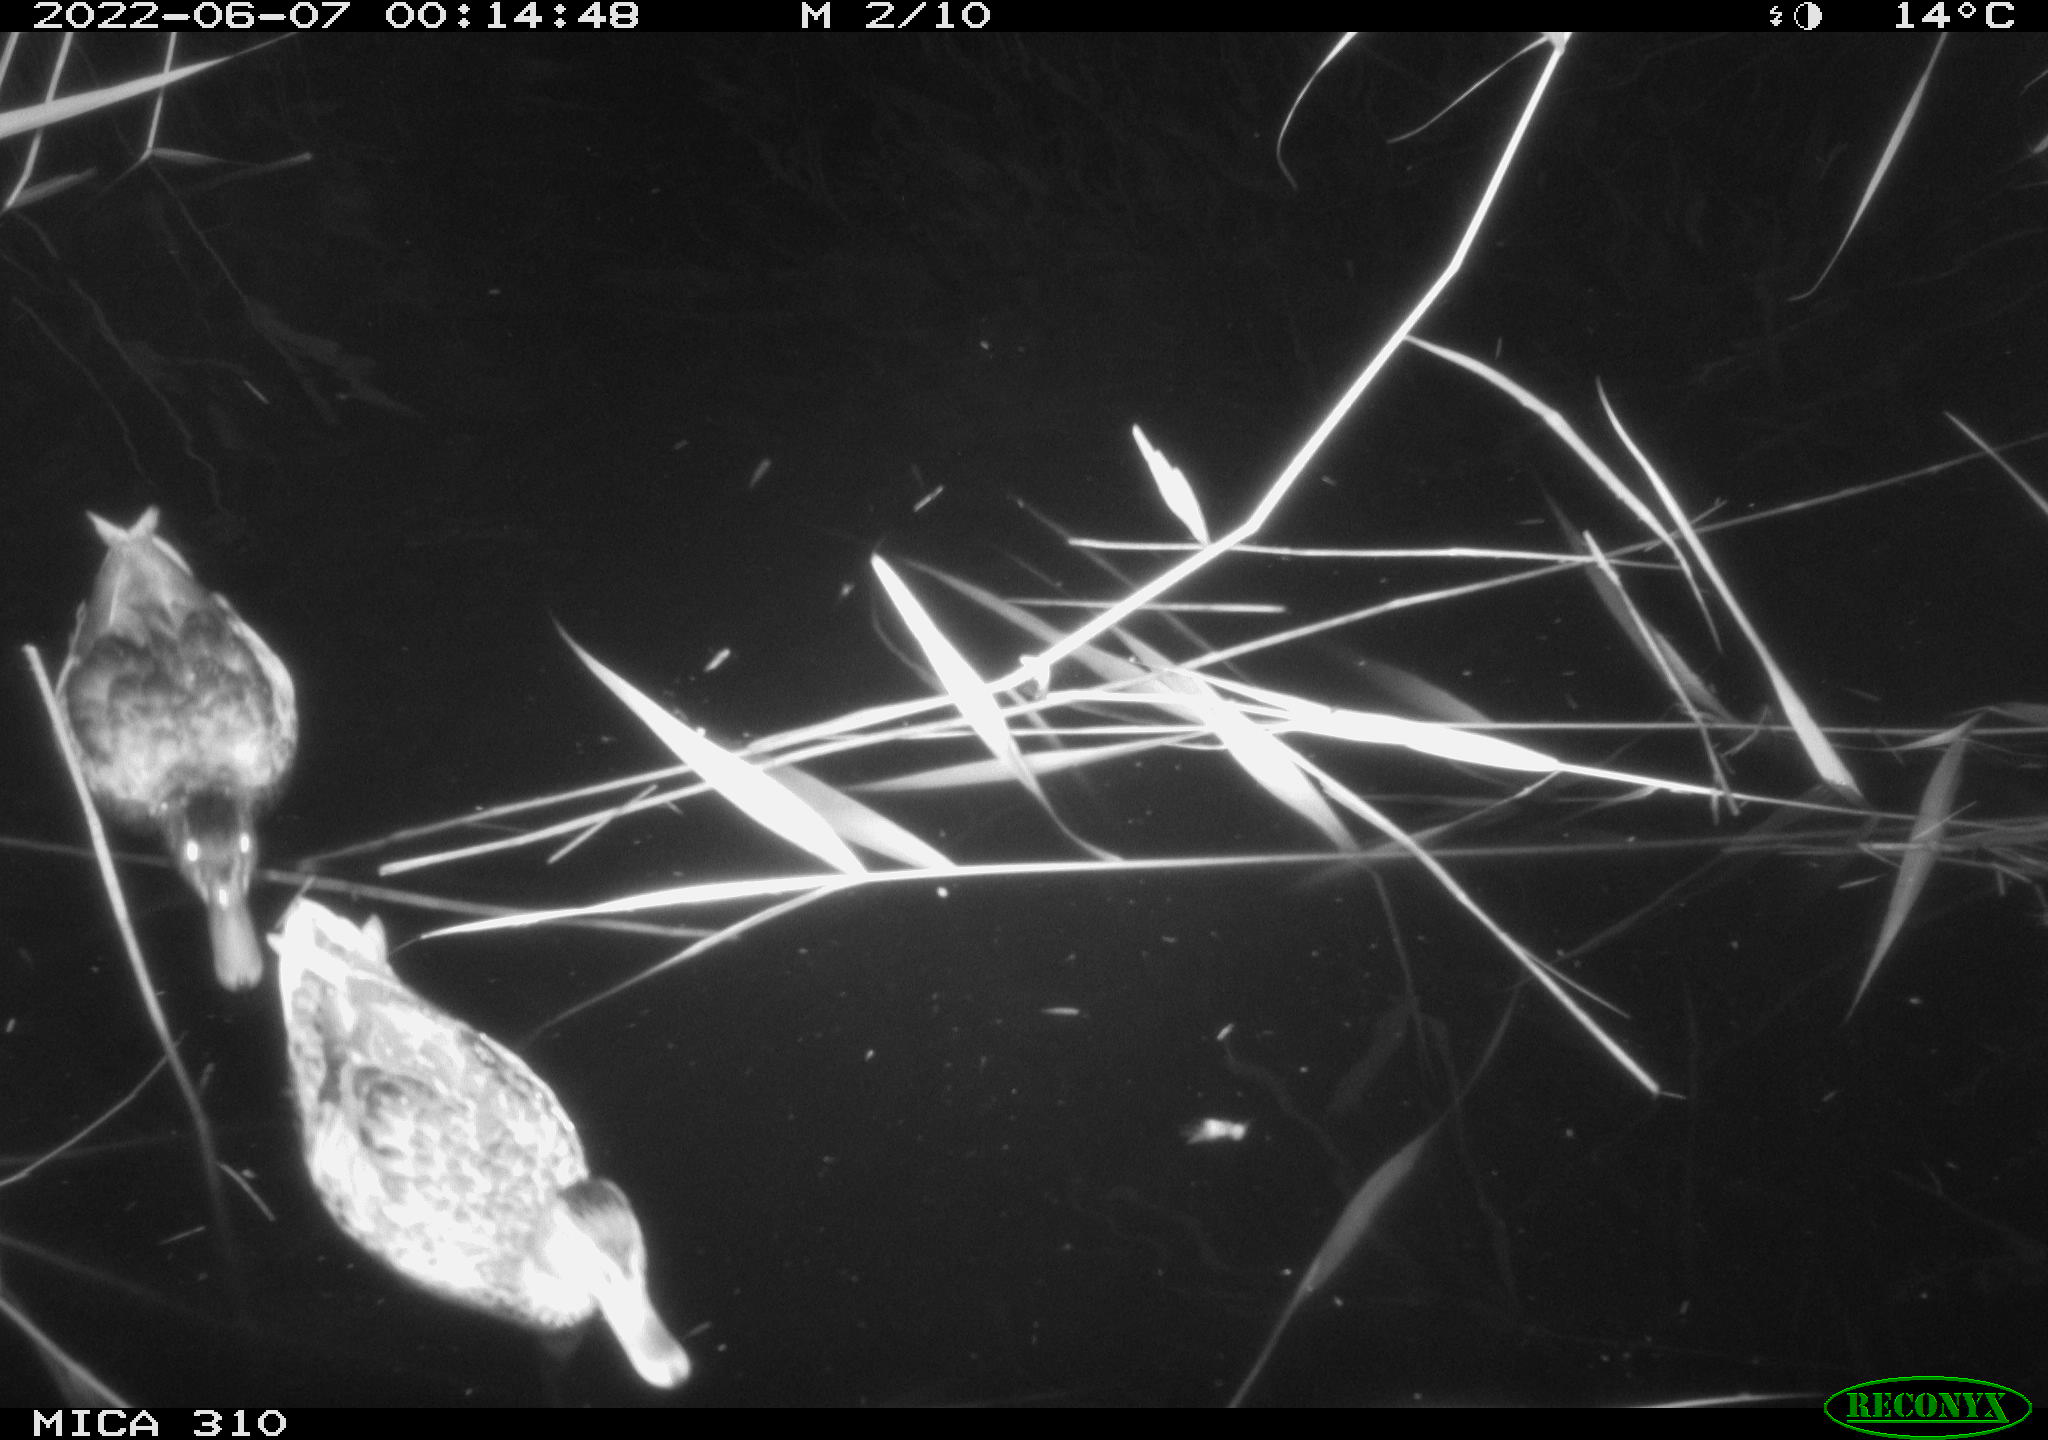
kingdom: Animalia
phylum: Chordata
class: Aves
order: Anseriformes
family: Anatidae
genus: Anas
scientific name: Anas platyrhynchos
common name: Mallard
